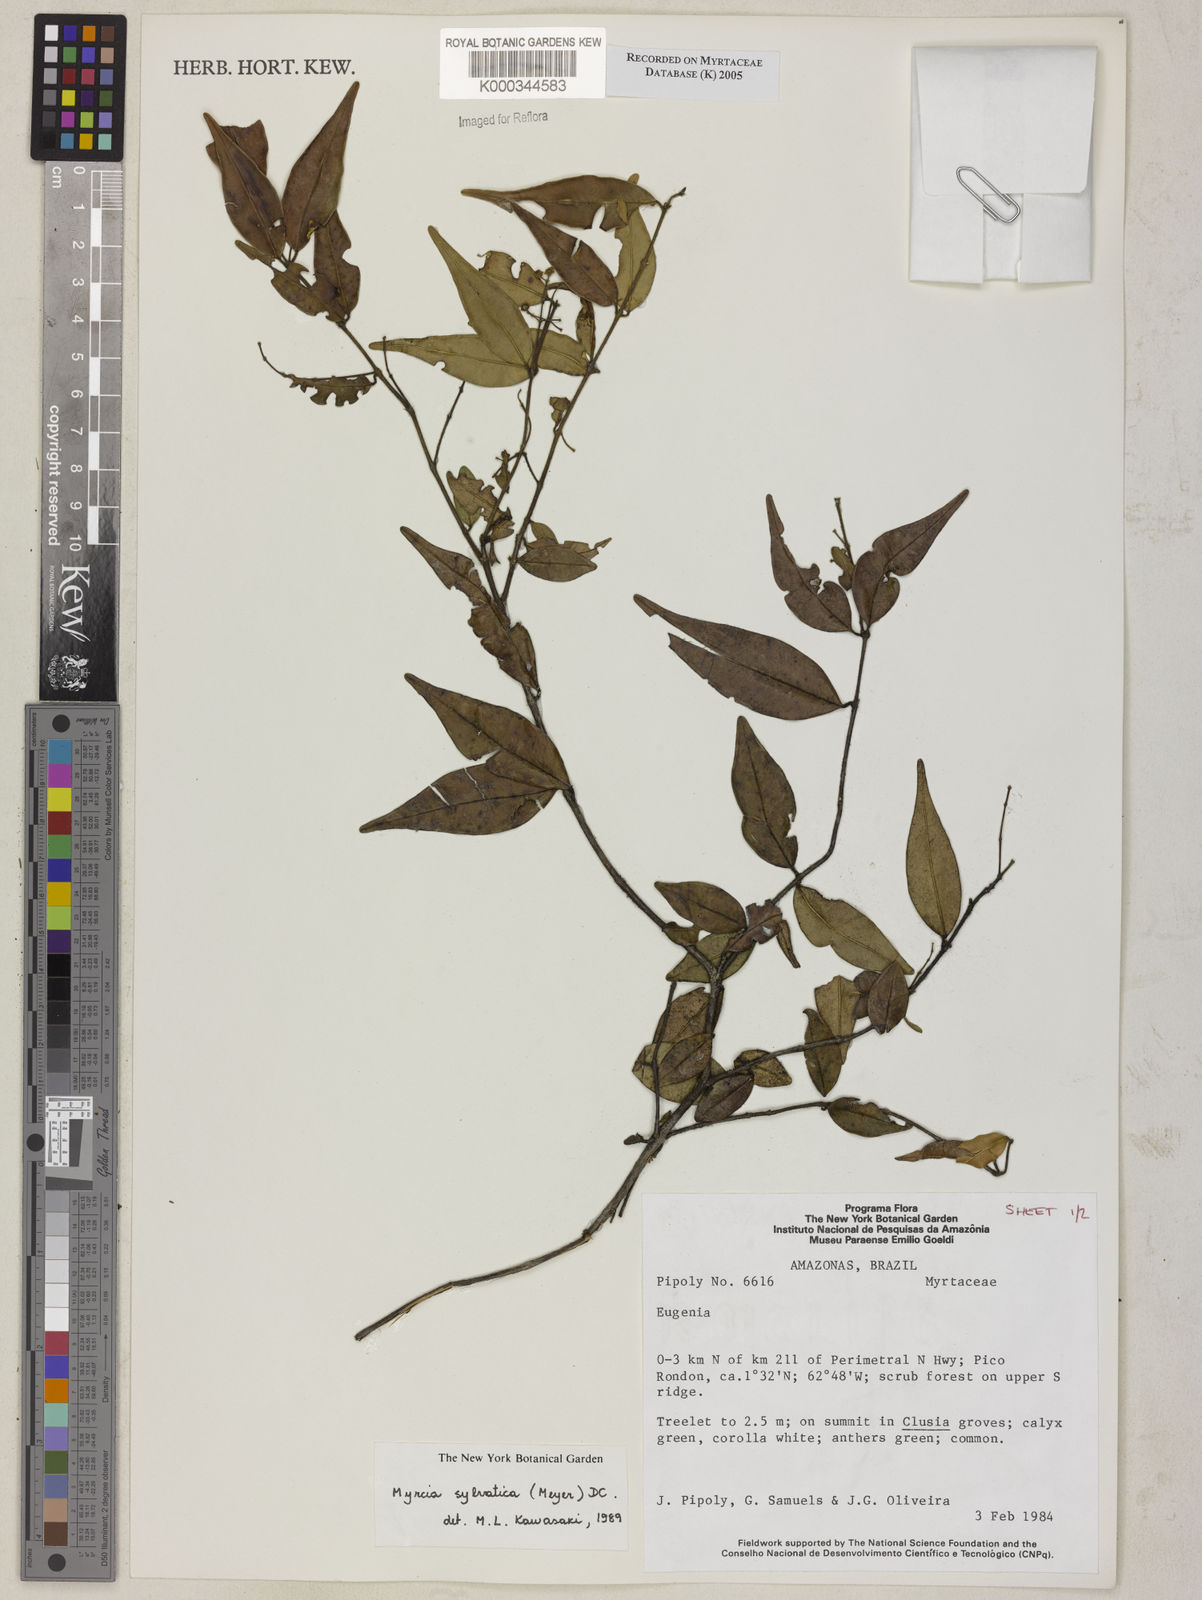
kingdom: Plantae
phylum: Tracheophyta
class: Magnoliopsida
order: Myrtales
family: Myrtaceae
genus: Myrcia
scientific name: Myrcia sylvatica
